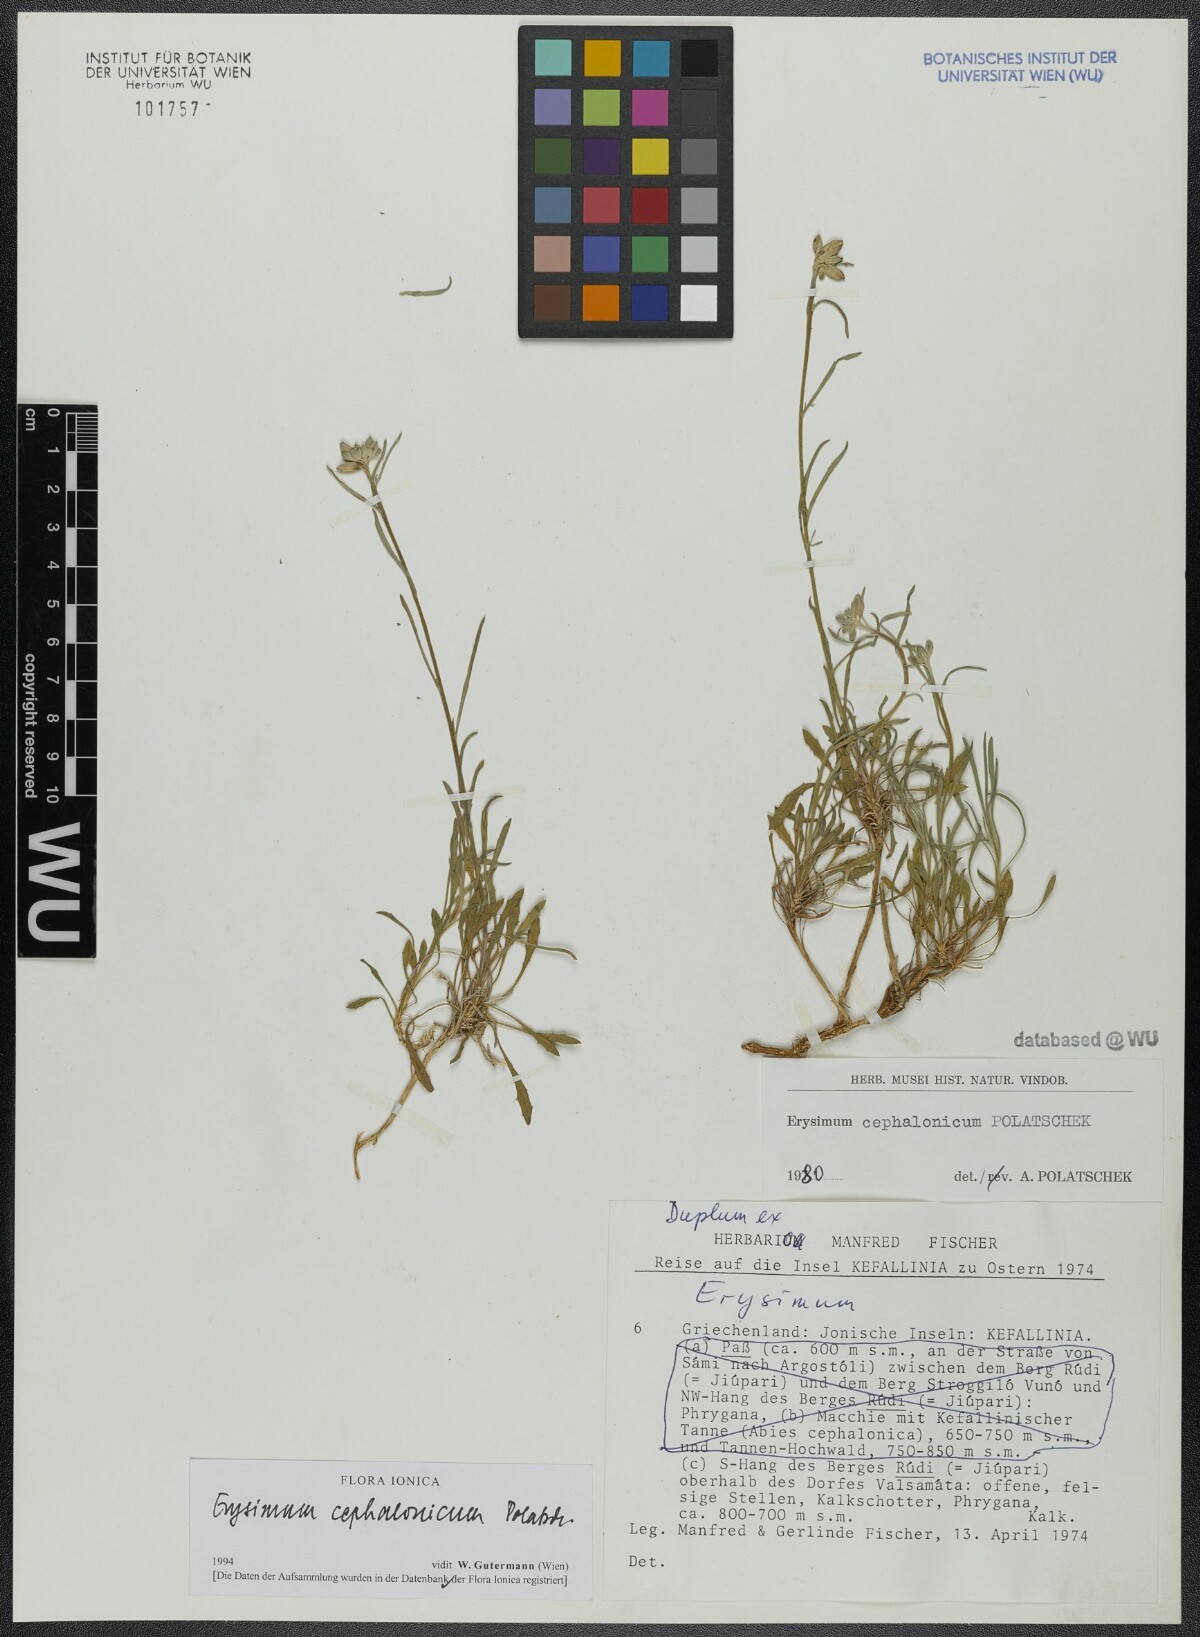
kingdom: Plantae
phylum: Tracheophyta
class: Magnoliopsida
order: Brassicales
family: Brassicaceae
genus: Erysimum
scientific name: Erysimum pusillum
